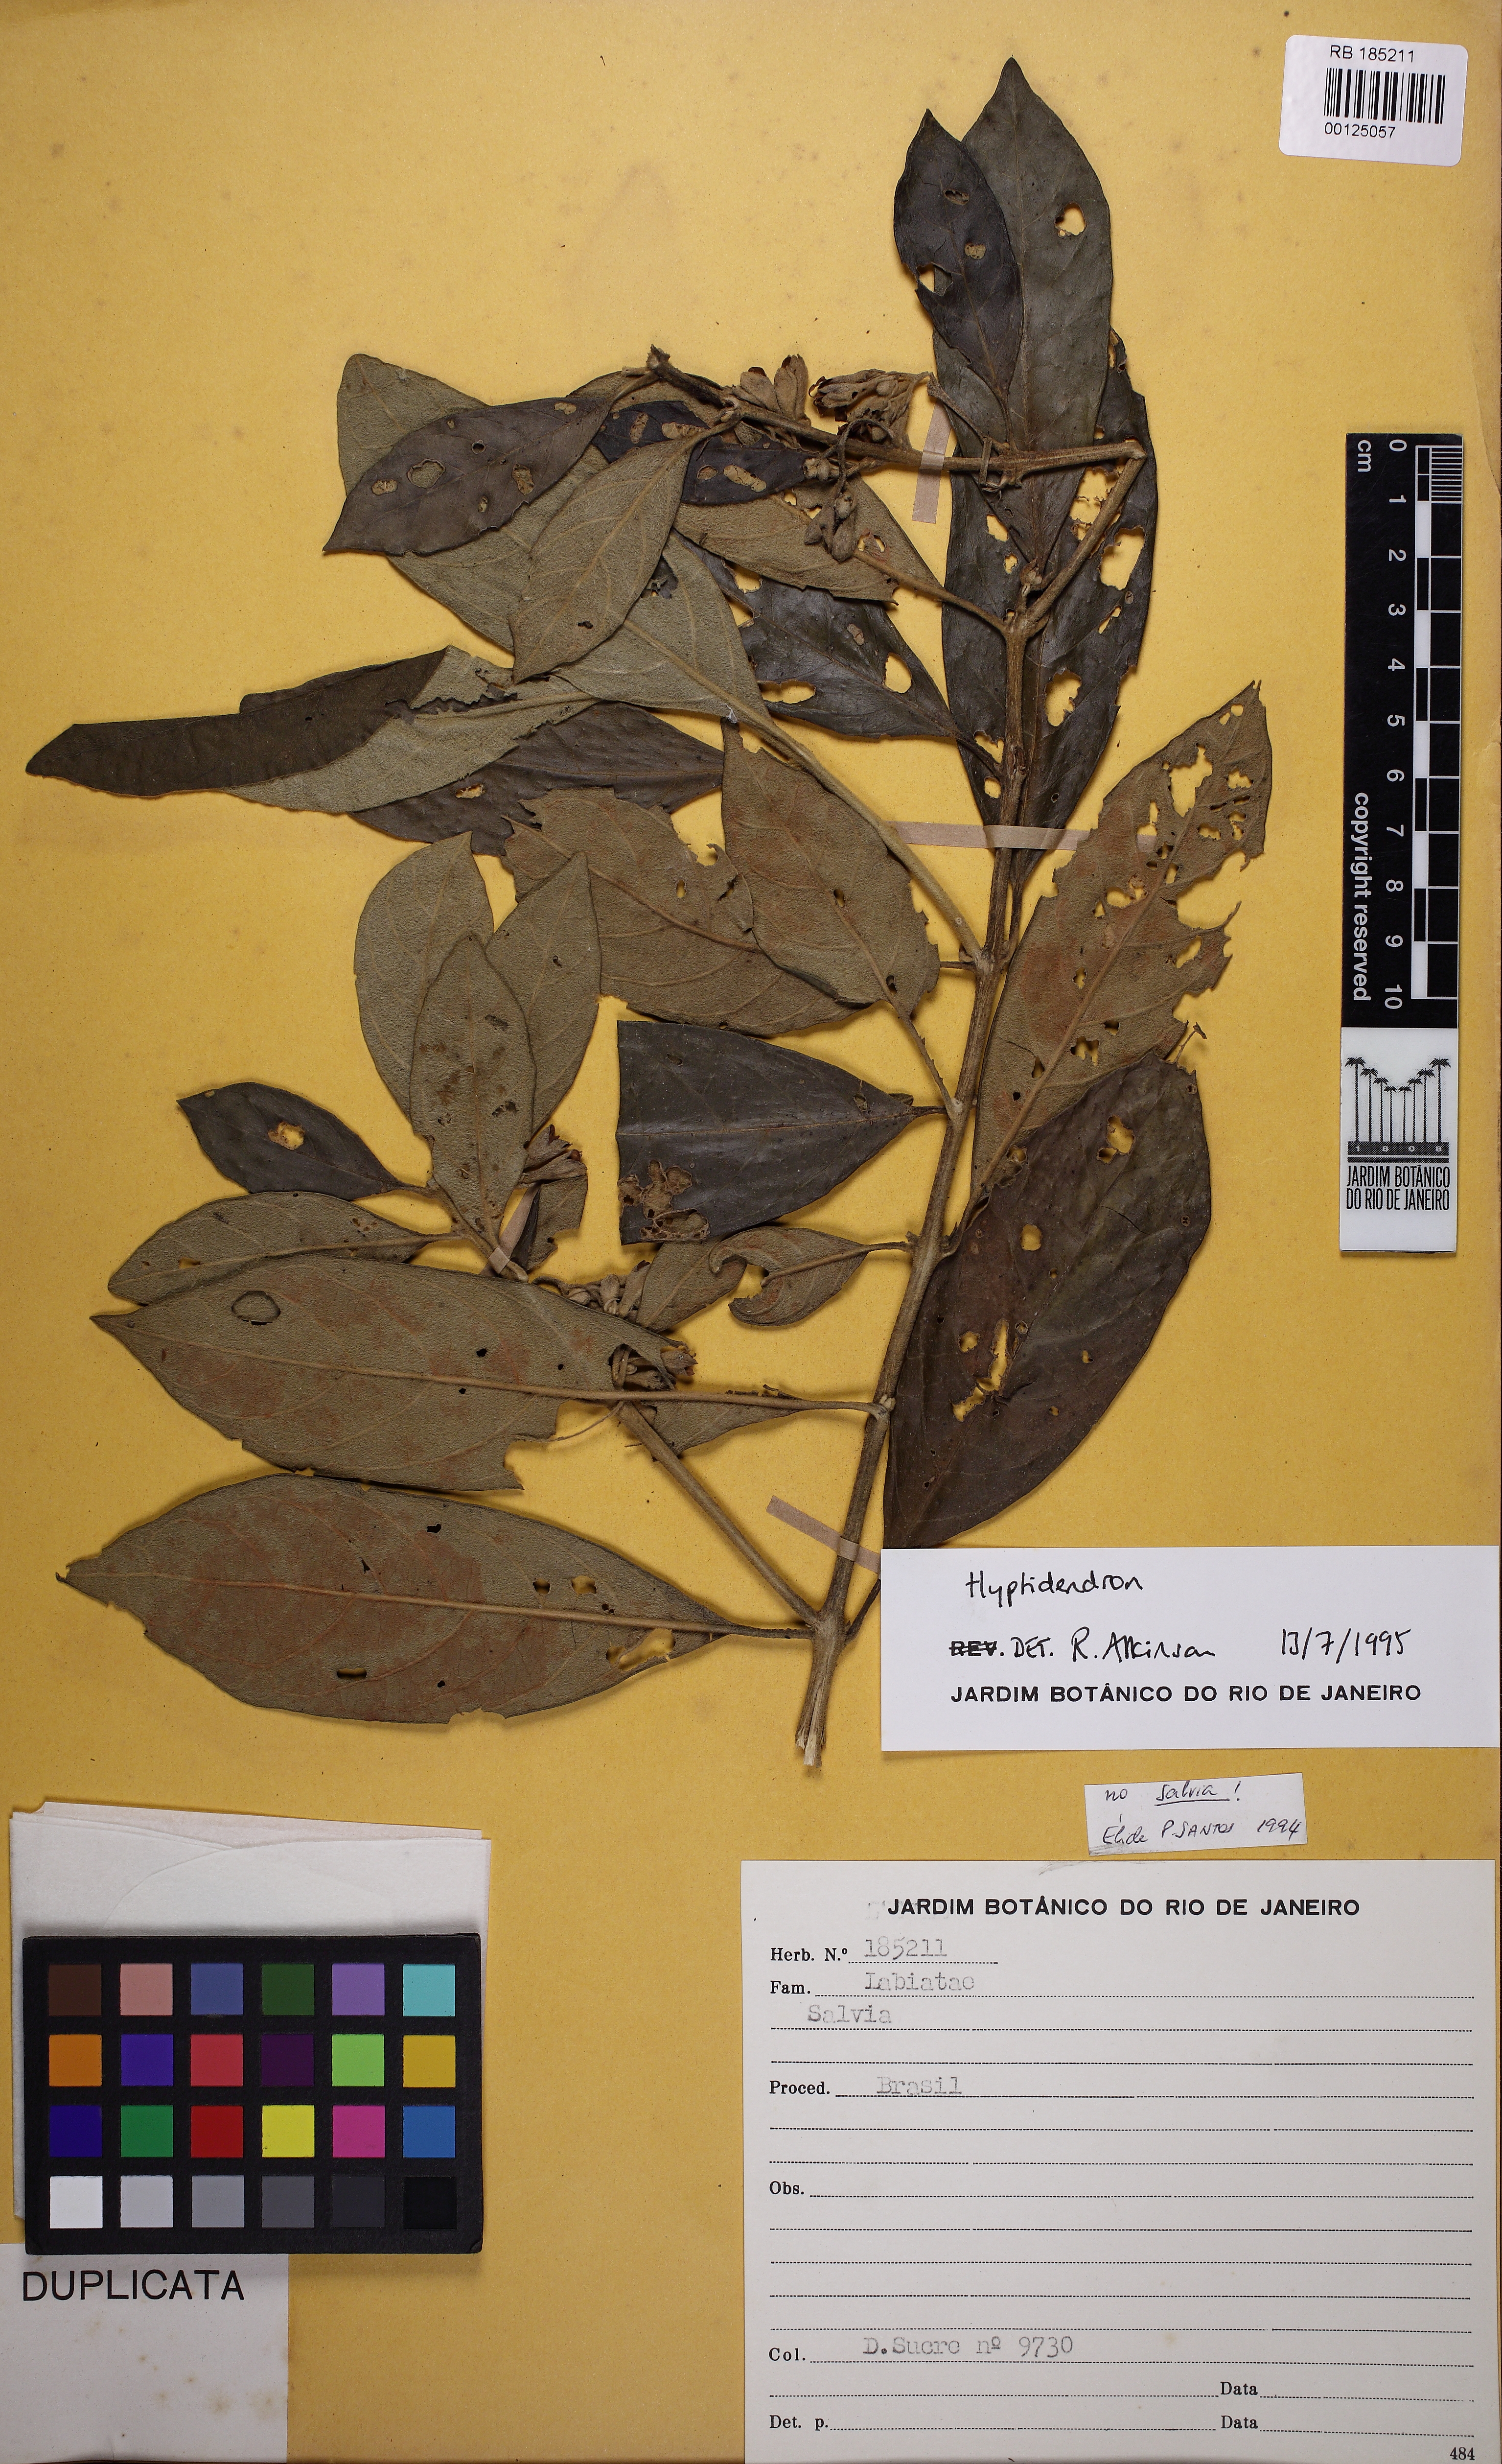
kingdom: Plantae
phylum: Tracheophyta
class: Magnoliopsida
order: Lamiales
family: Lamiaceae
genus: Aegiphila
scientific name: Aegiphila
